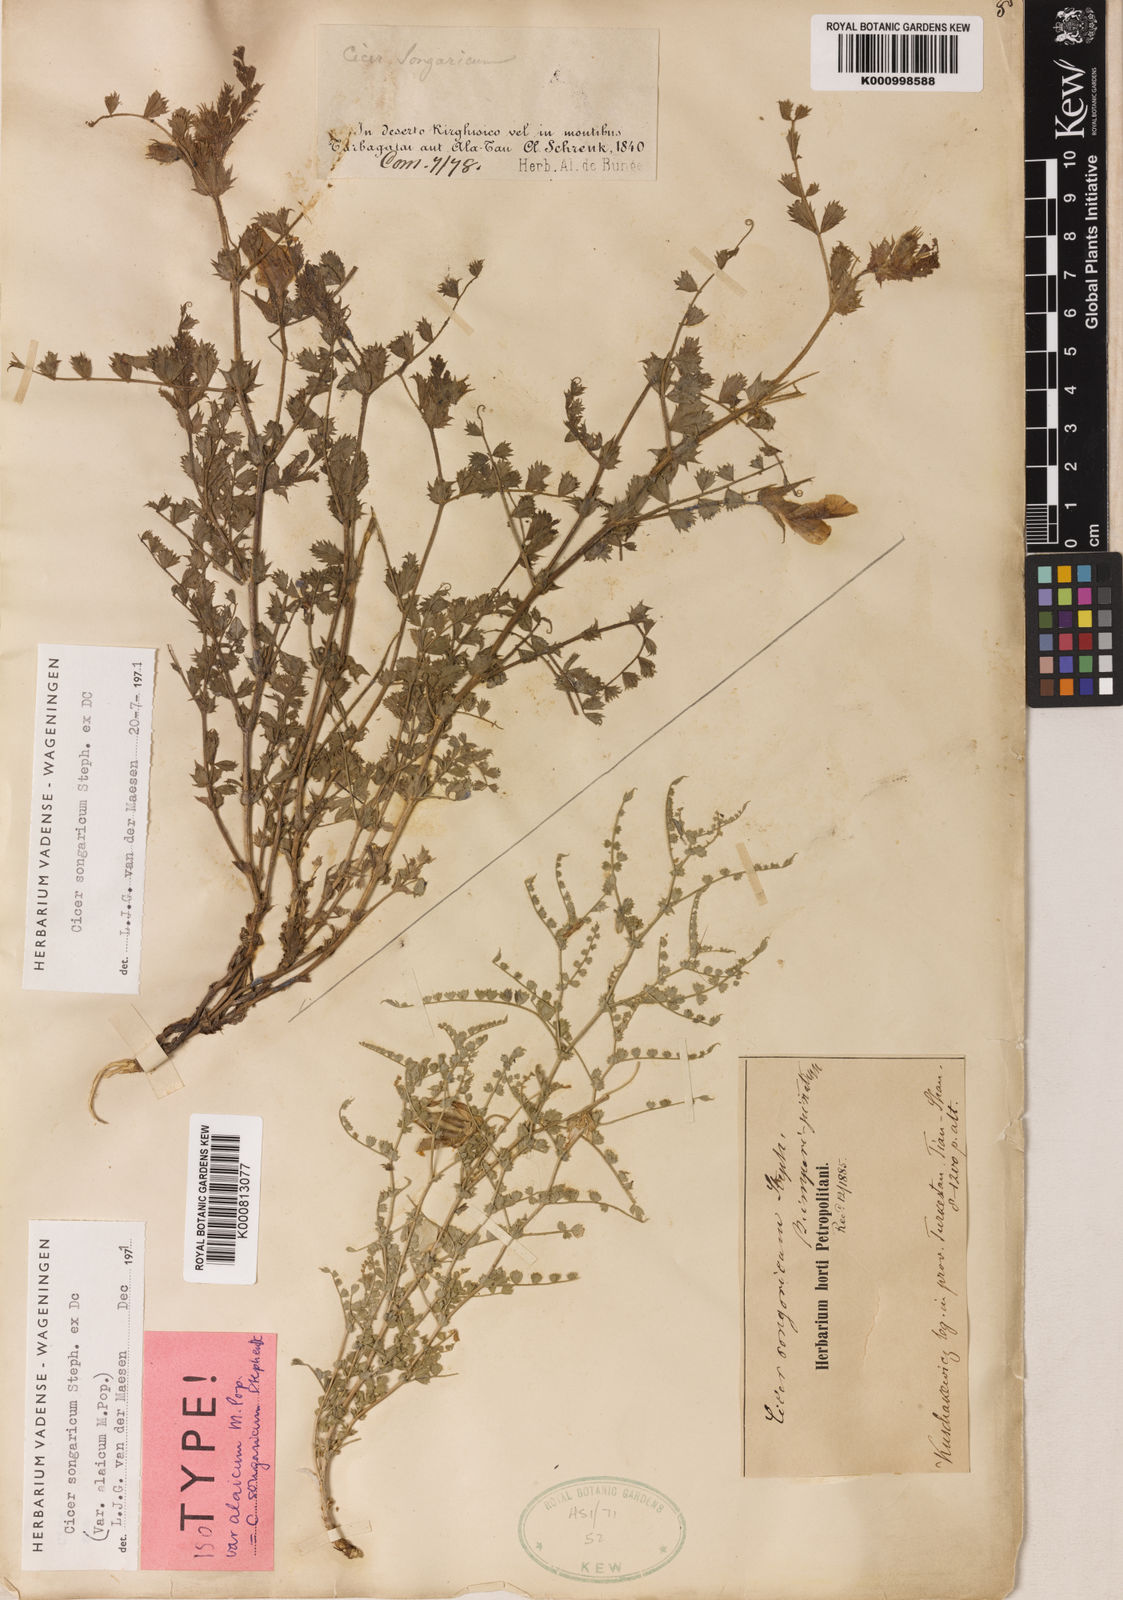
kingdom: Plantae
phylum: Tracheophyta
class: Magnoliopsida
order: Fabales
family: Fabaceae
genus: Cicer
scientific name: Cicer anatolicum
